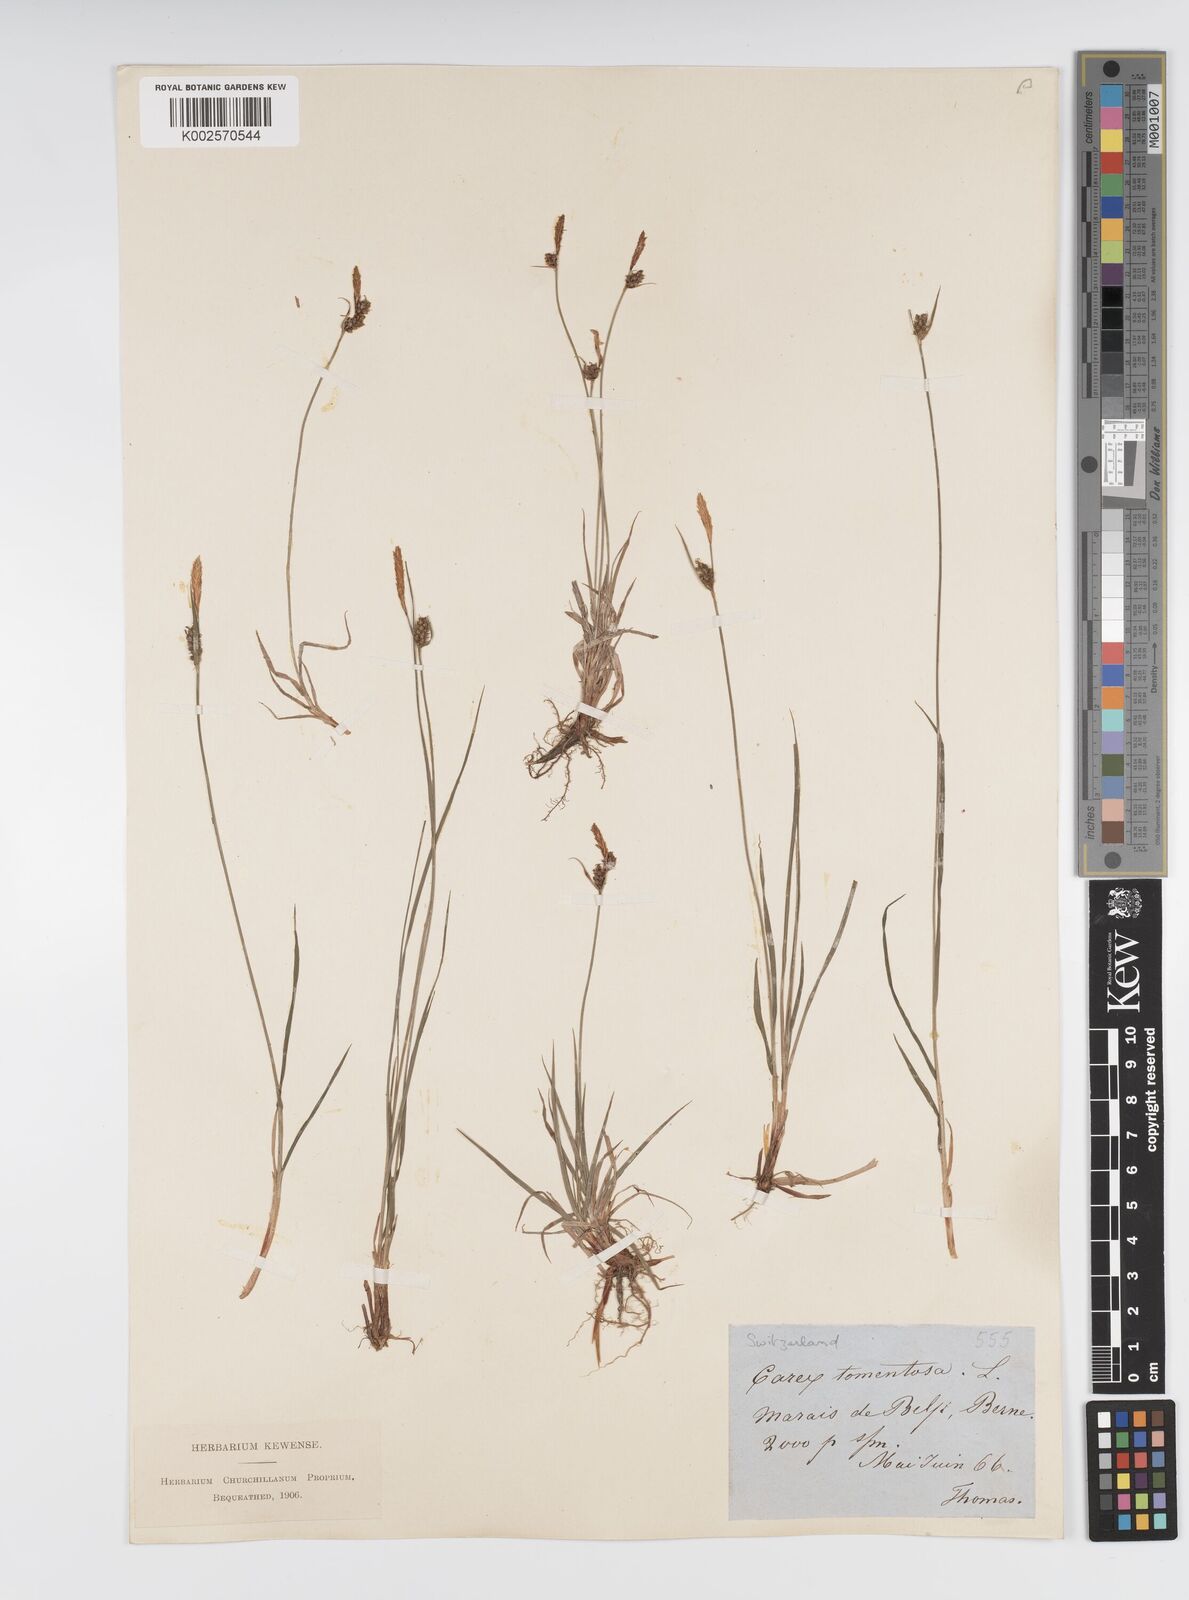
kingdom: Plantae
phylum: Tracheophyta
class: Liliopsida
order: Poales
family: Cyperaceae
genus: Carex
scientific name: Carex montana
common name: Soft-leaved sedge
